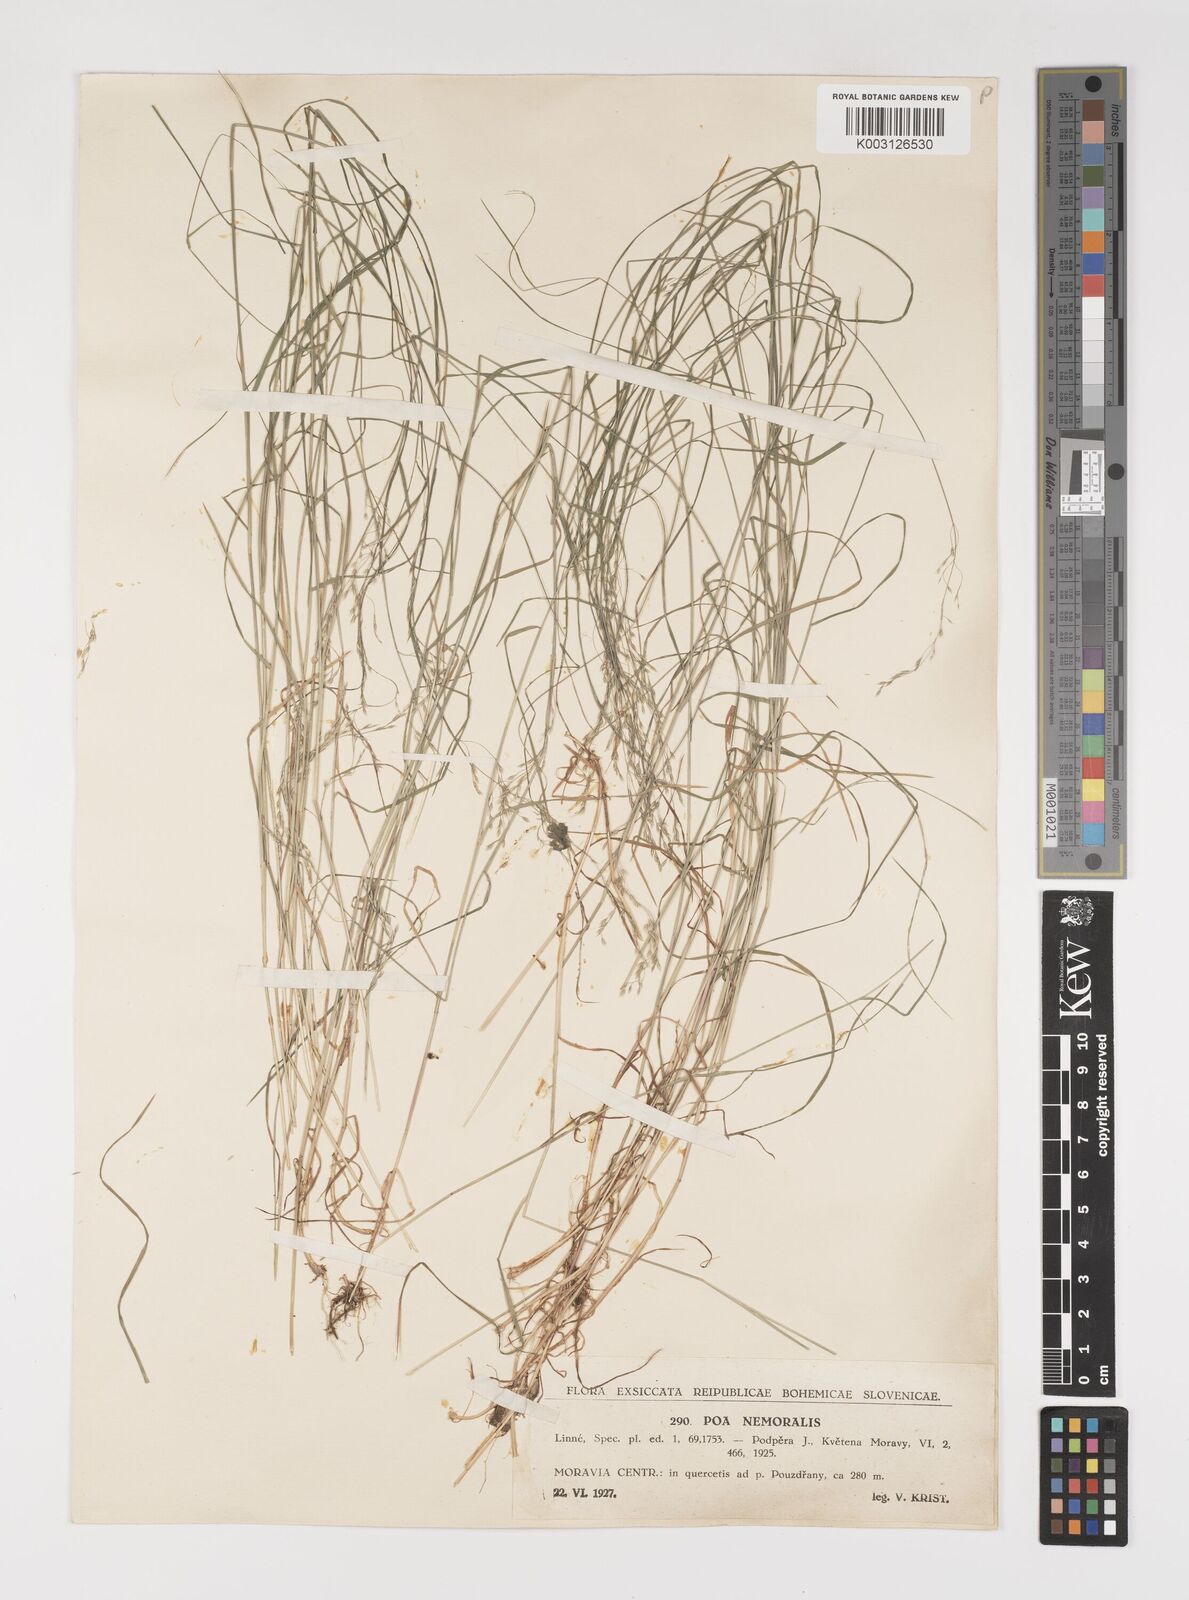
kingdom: Plantae
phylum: Tracheophyta
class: Liliopsida
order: Poales
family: Poaceae
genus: Poa
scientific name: Poa nemoralis
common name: Wood bluegrass
